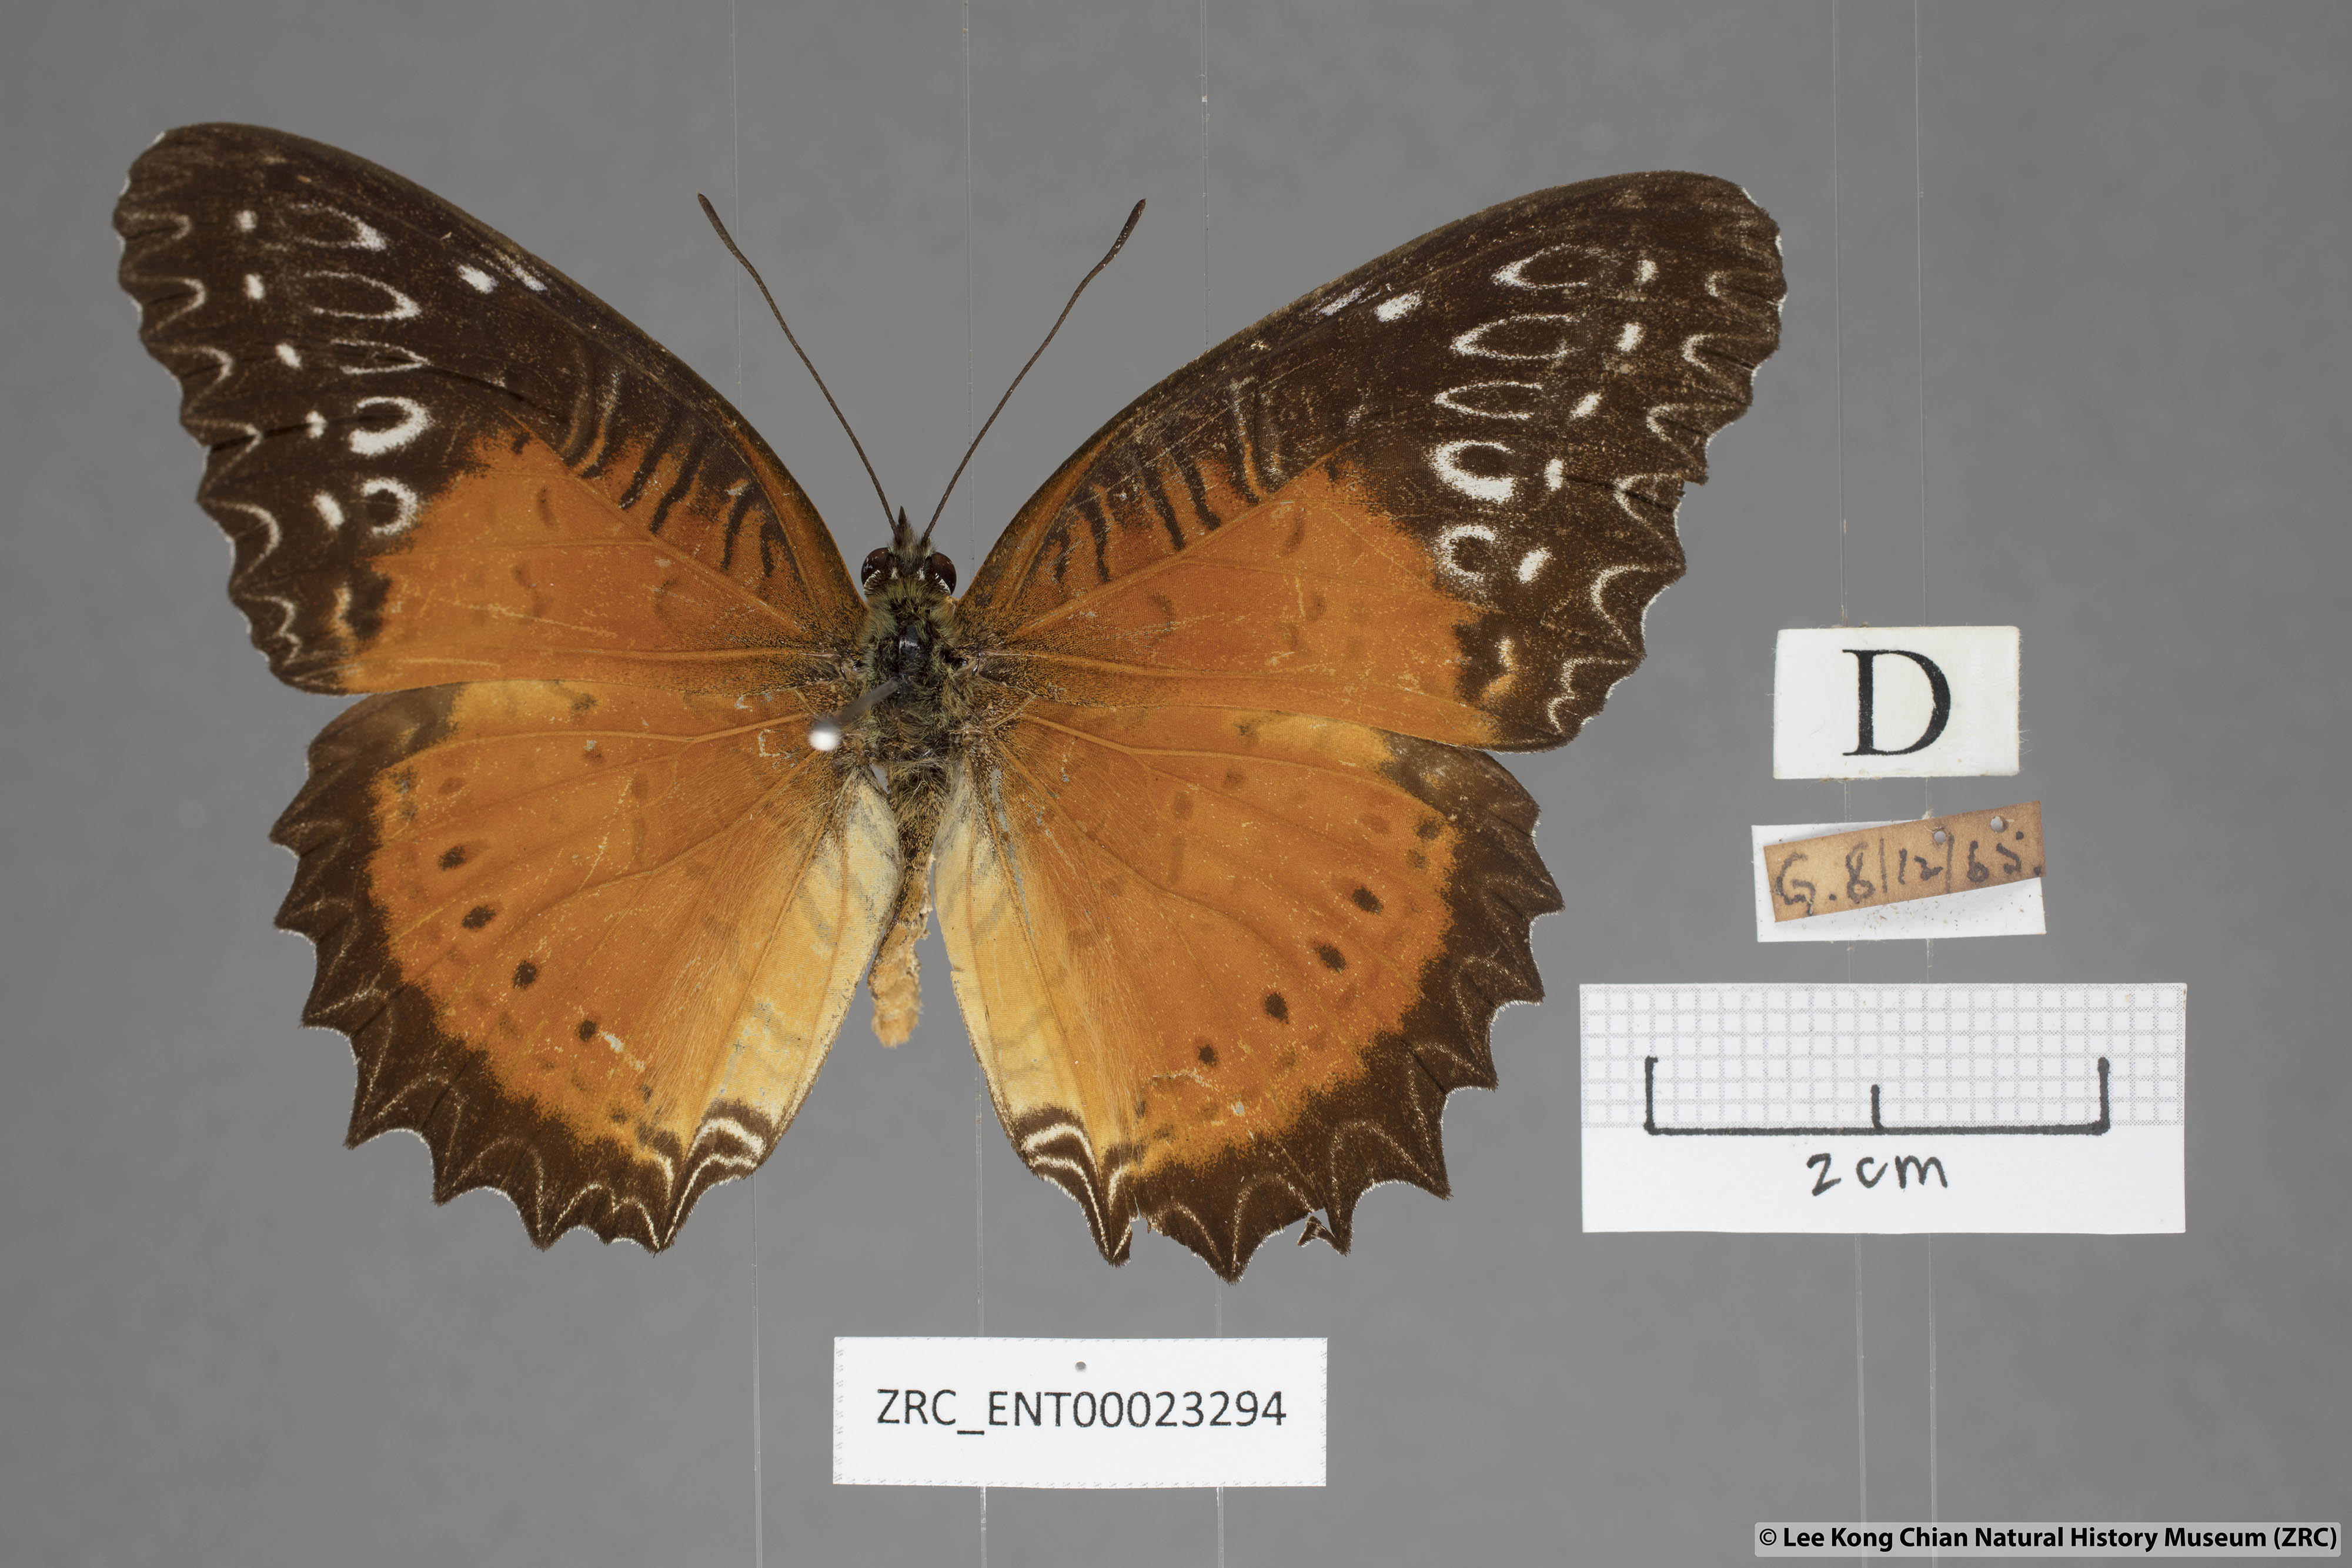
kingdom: Animalia
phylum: Arthropoda
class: Insecta
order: Lepidoptera
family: Nymphalidae
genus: Cethosia
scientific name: Cethosia biblis
